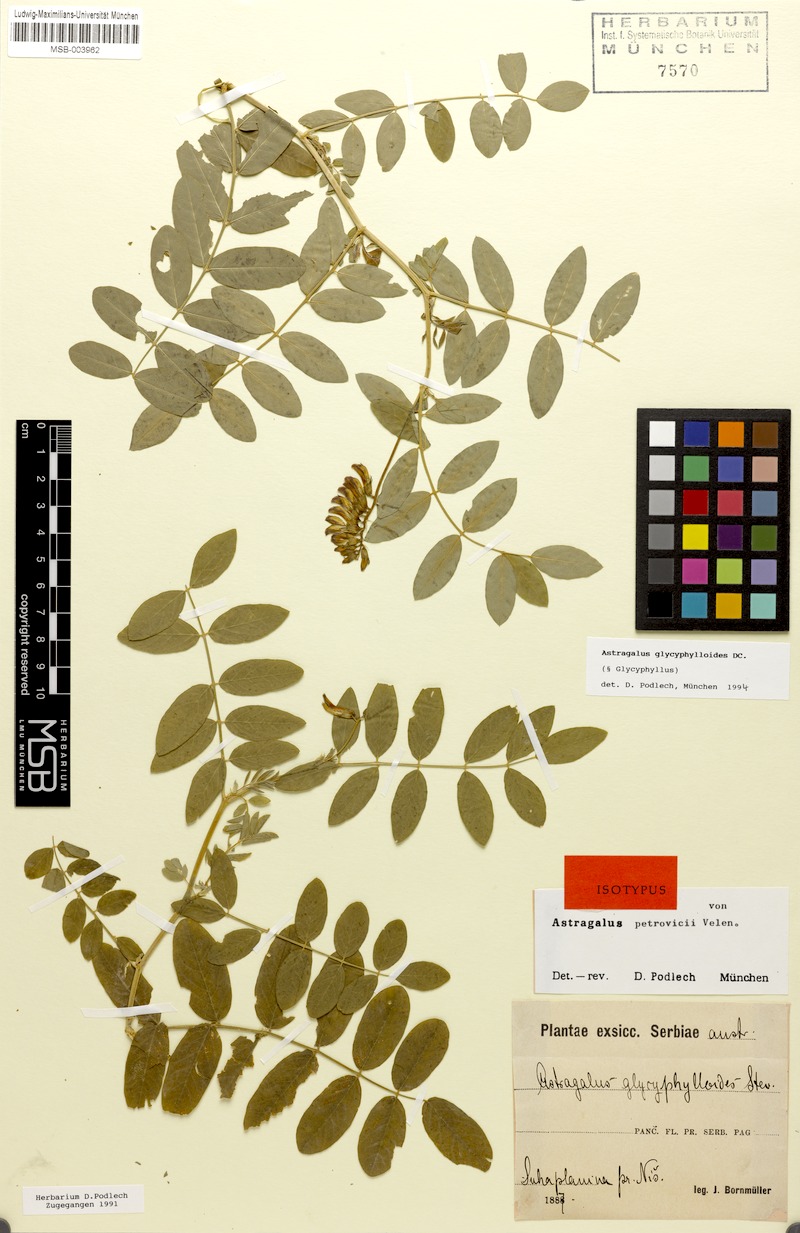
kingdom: Plantae
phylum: Tracheophyta
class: Magnoliopsida
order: Fabales
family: Fabaceae
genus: Astragalus
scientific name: Astragalus glycyphylloides
